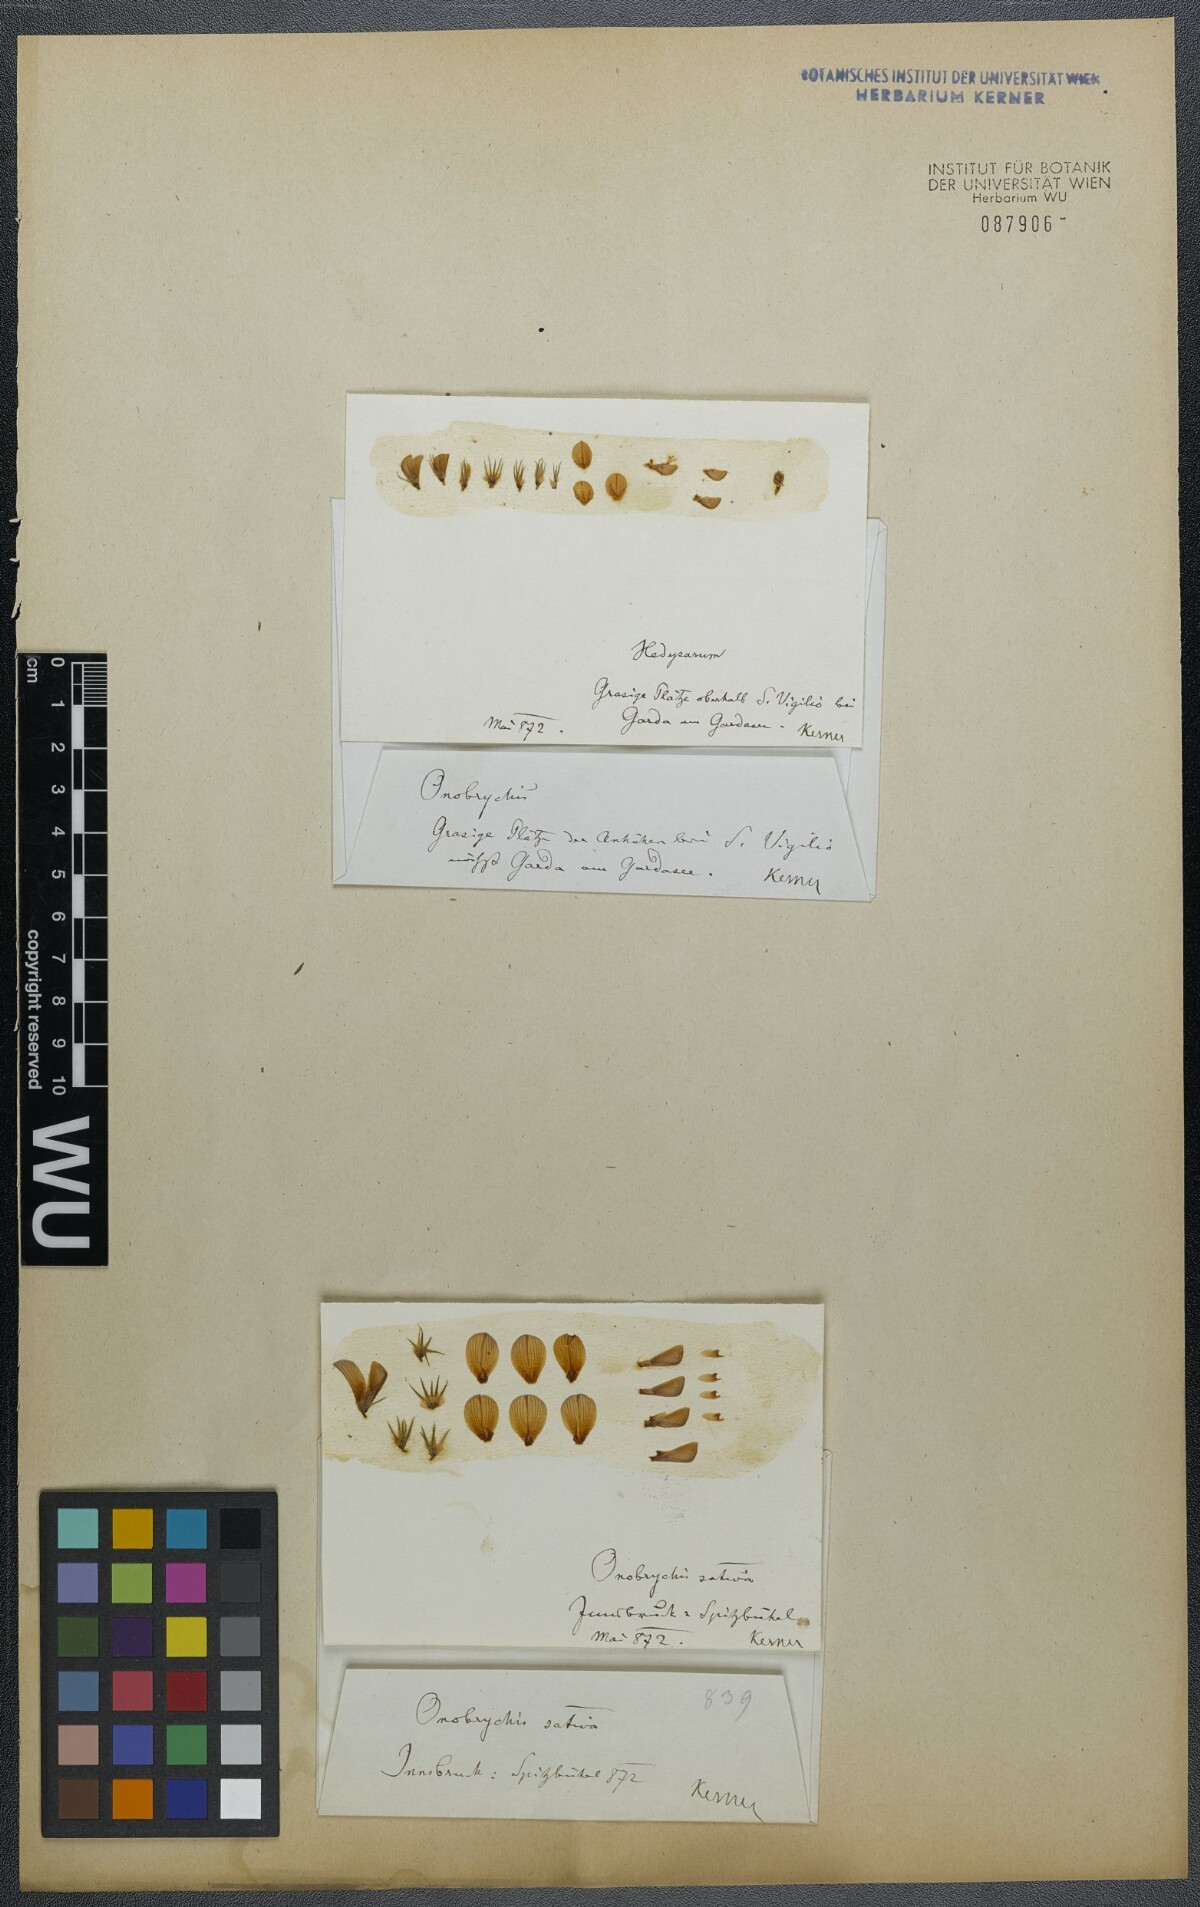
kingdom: Plantae
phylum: Tracheophyta
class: Magnoliopsida
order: Fabales
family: Fabaceae
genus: Onobrychis
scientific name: Onobrychis arenaria
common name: Sand esparcet
